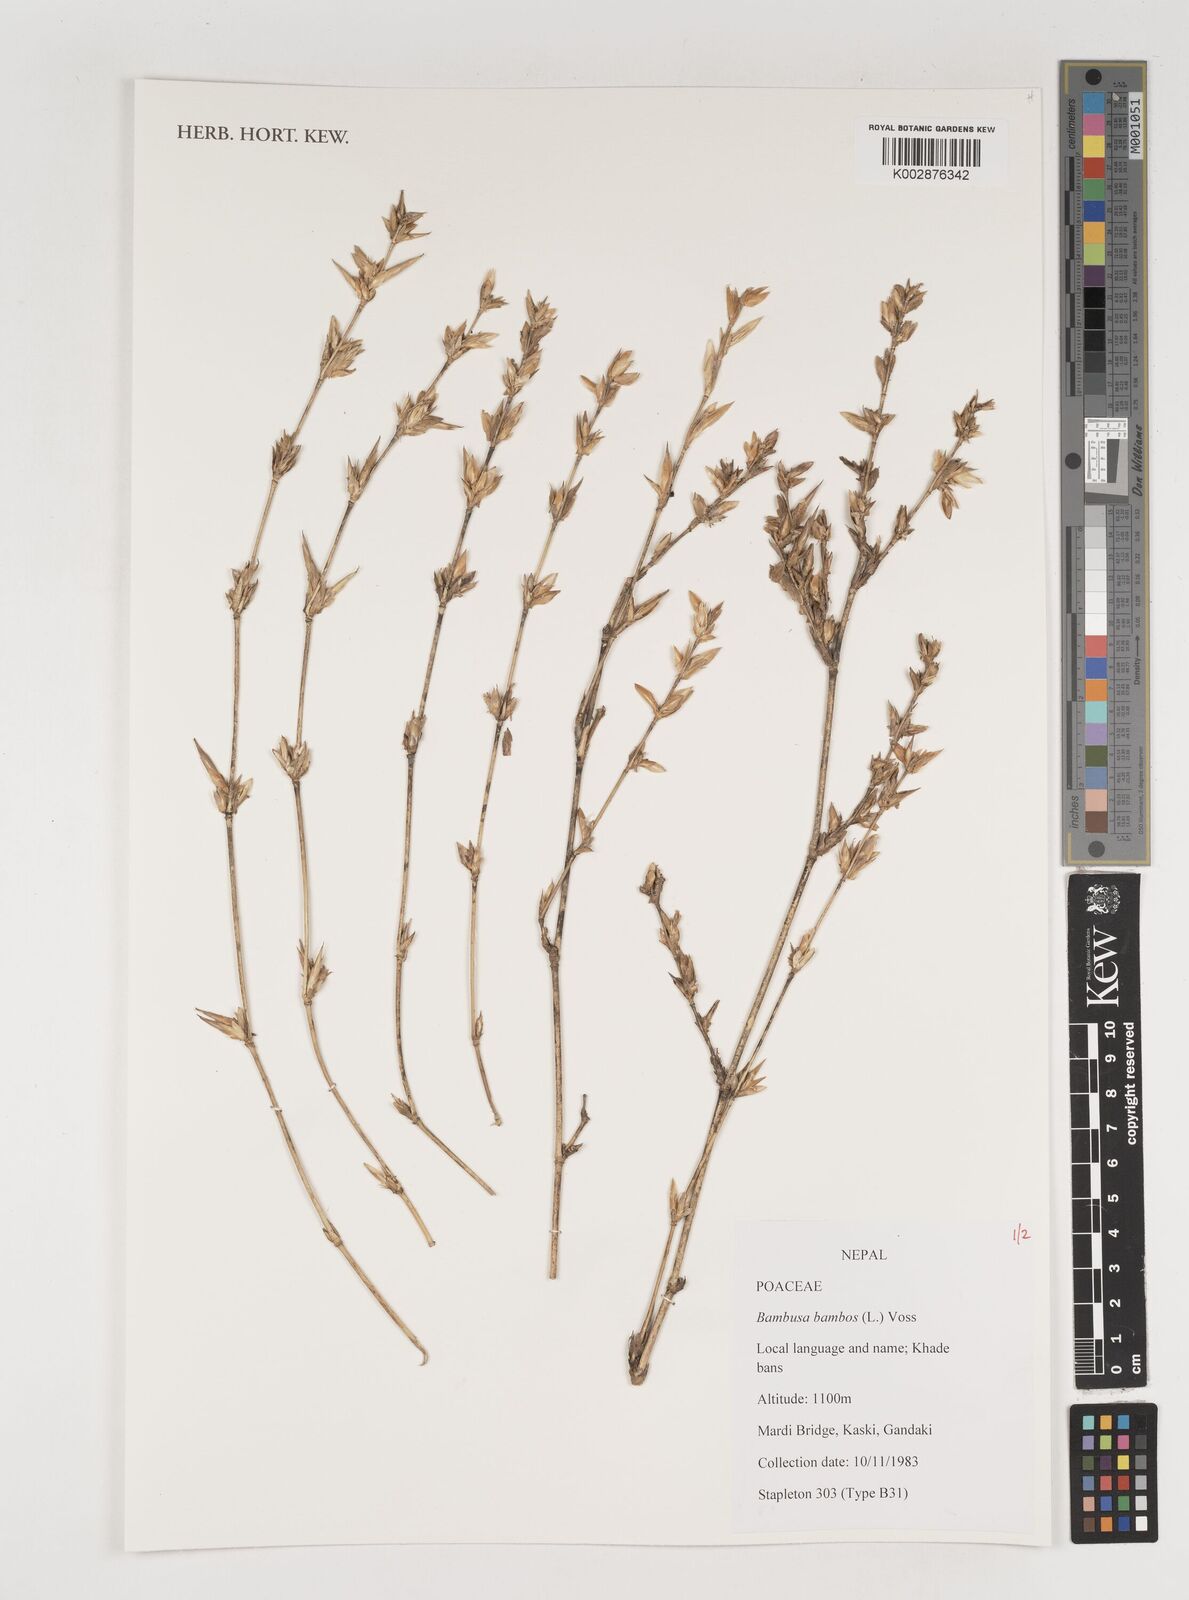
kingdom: Plantae
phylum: Tracheophyta
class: Liliopsida
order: Poales
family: Poaceae
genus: Bambusa
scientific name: Bambusa bambos
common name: Indian thorny bamboo
